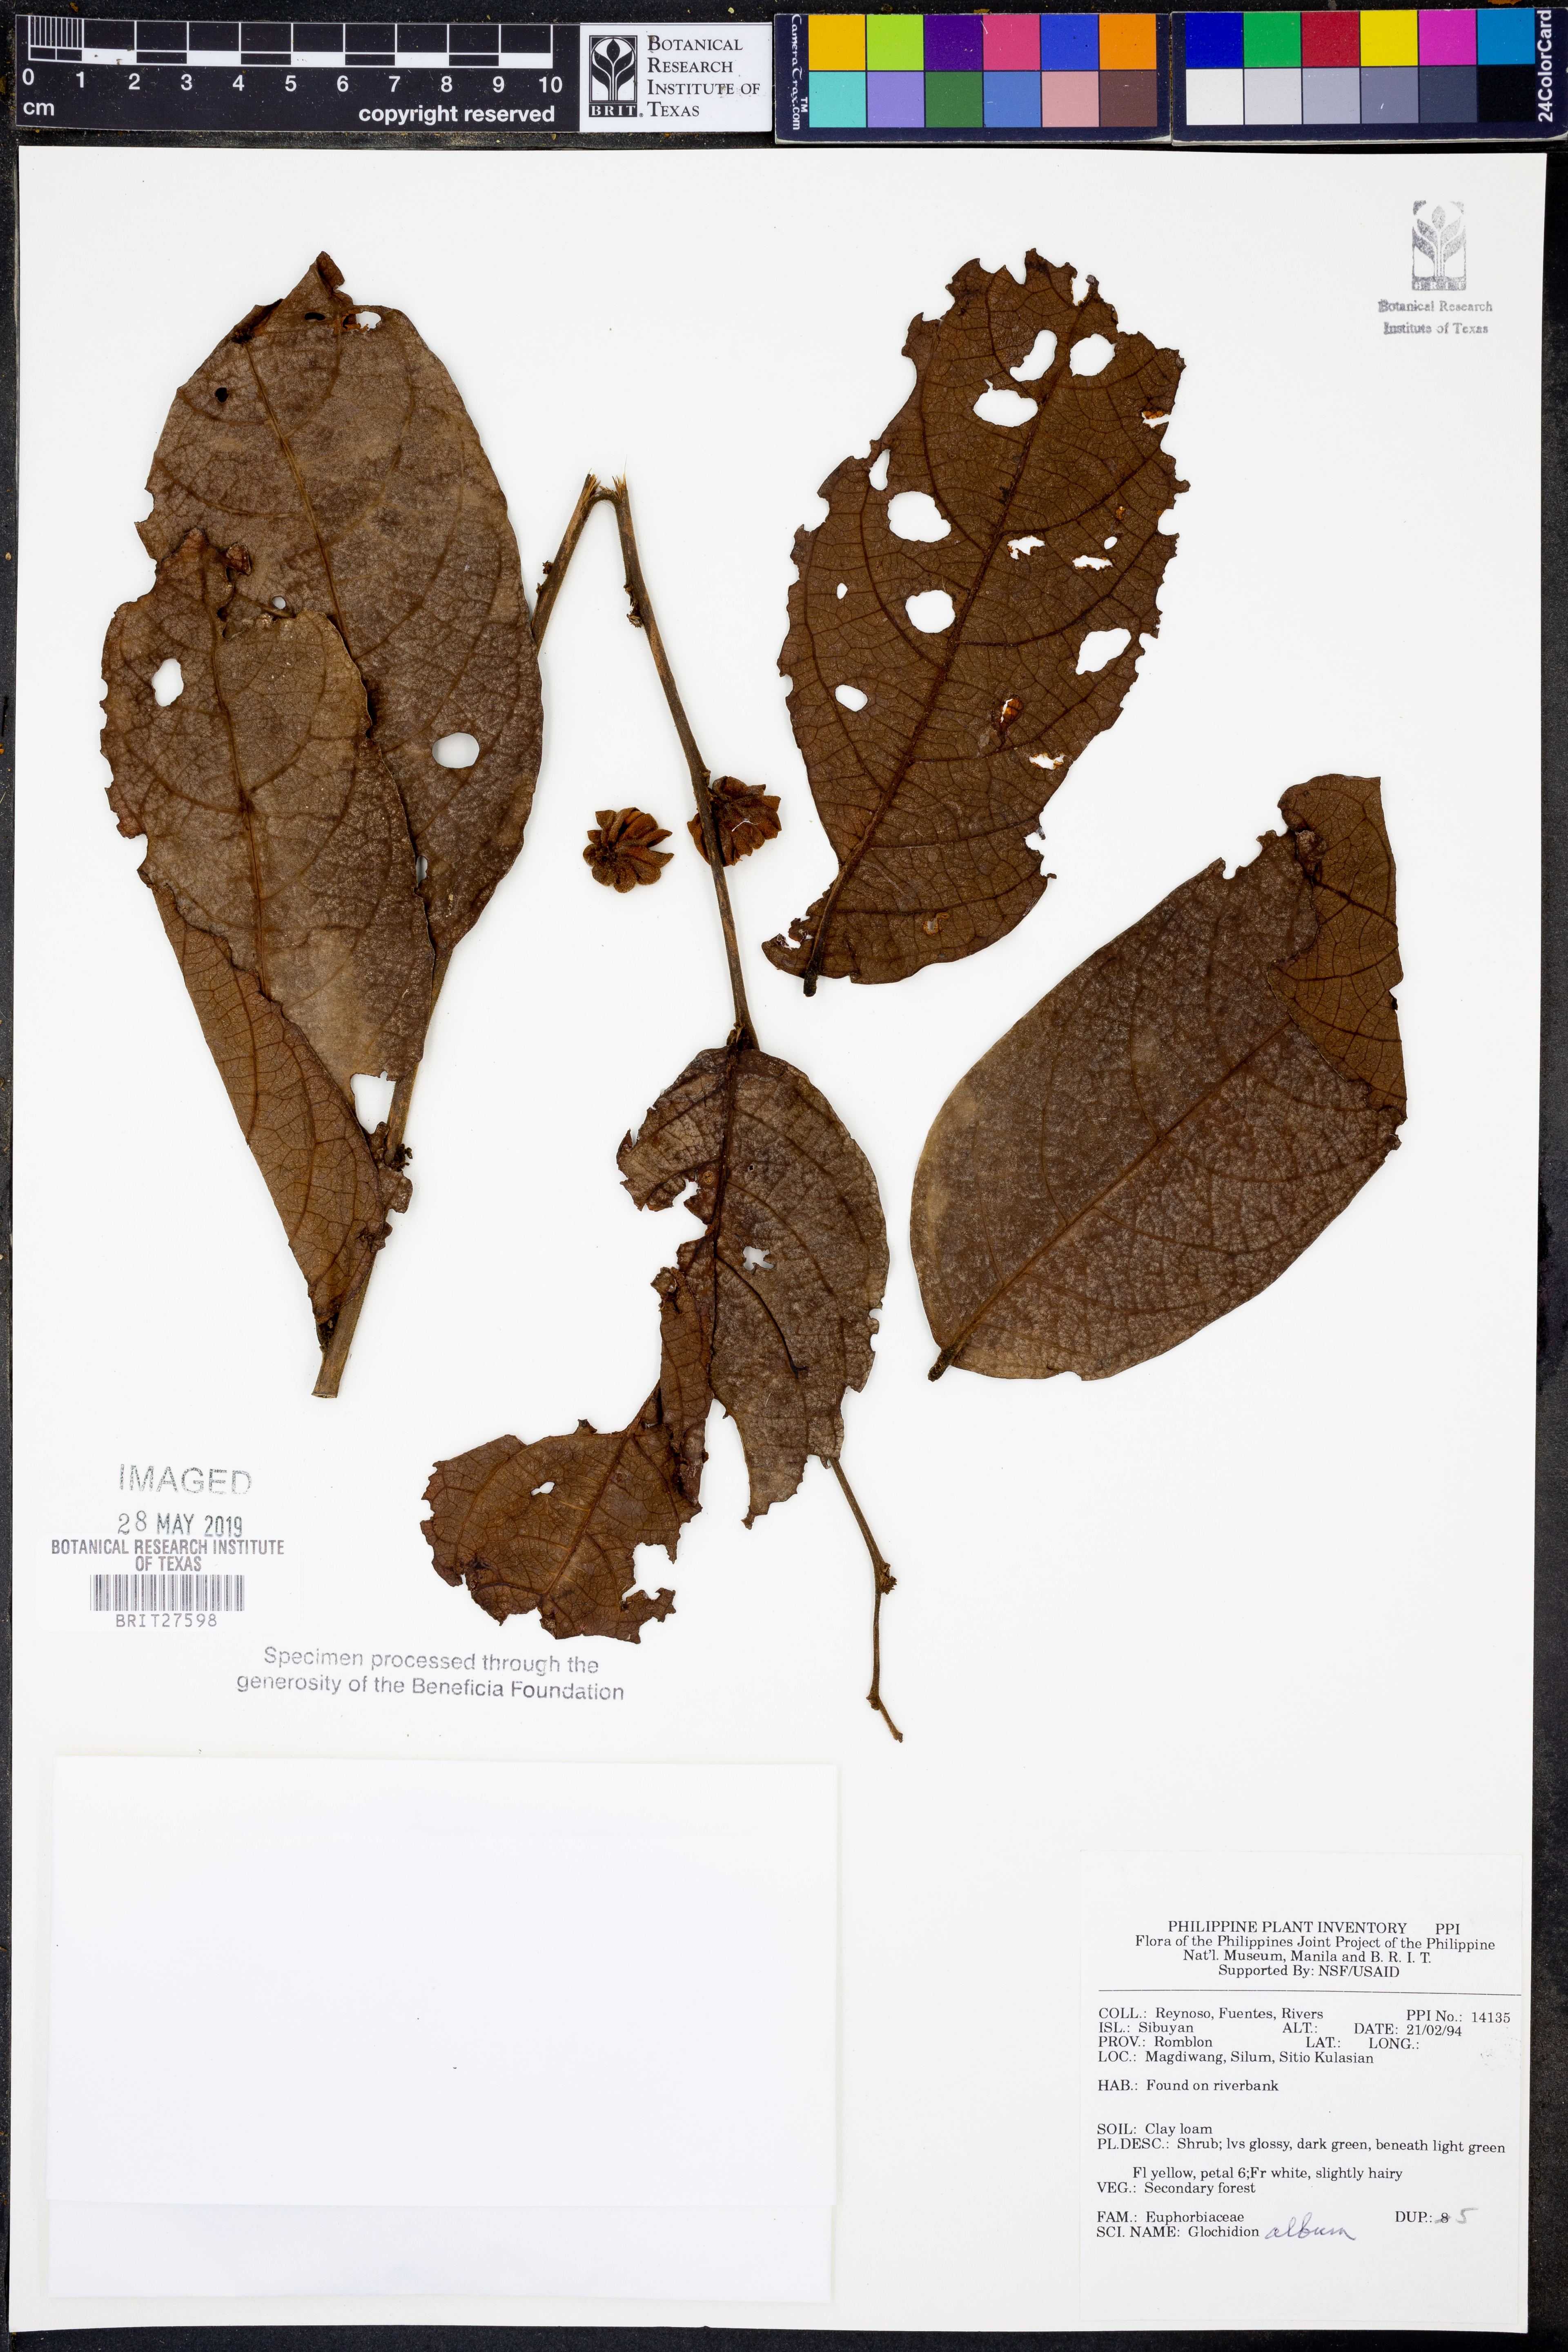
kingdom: Plantae
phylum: Tracheophyta
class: Magnoliopsida
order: Malpighiales
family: Phyllanthaceae
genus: Glochidion
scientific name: Glochidion album
